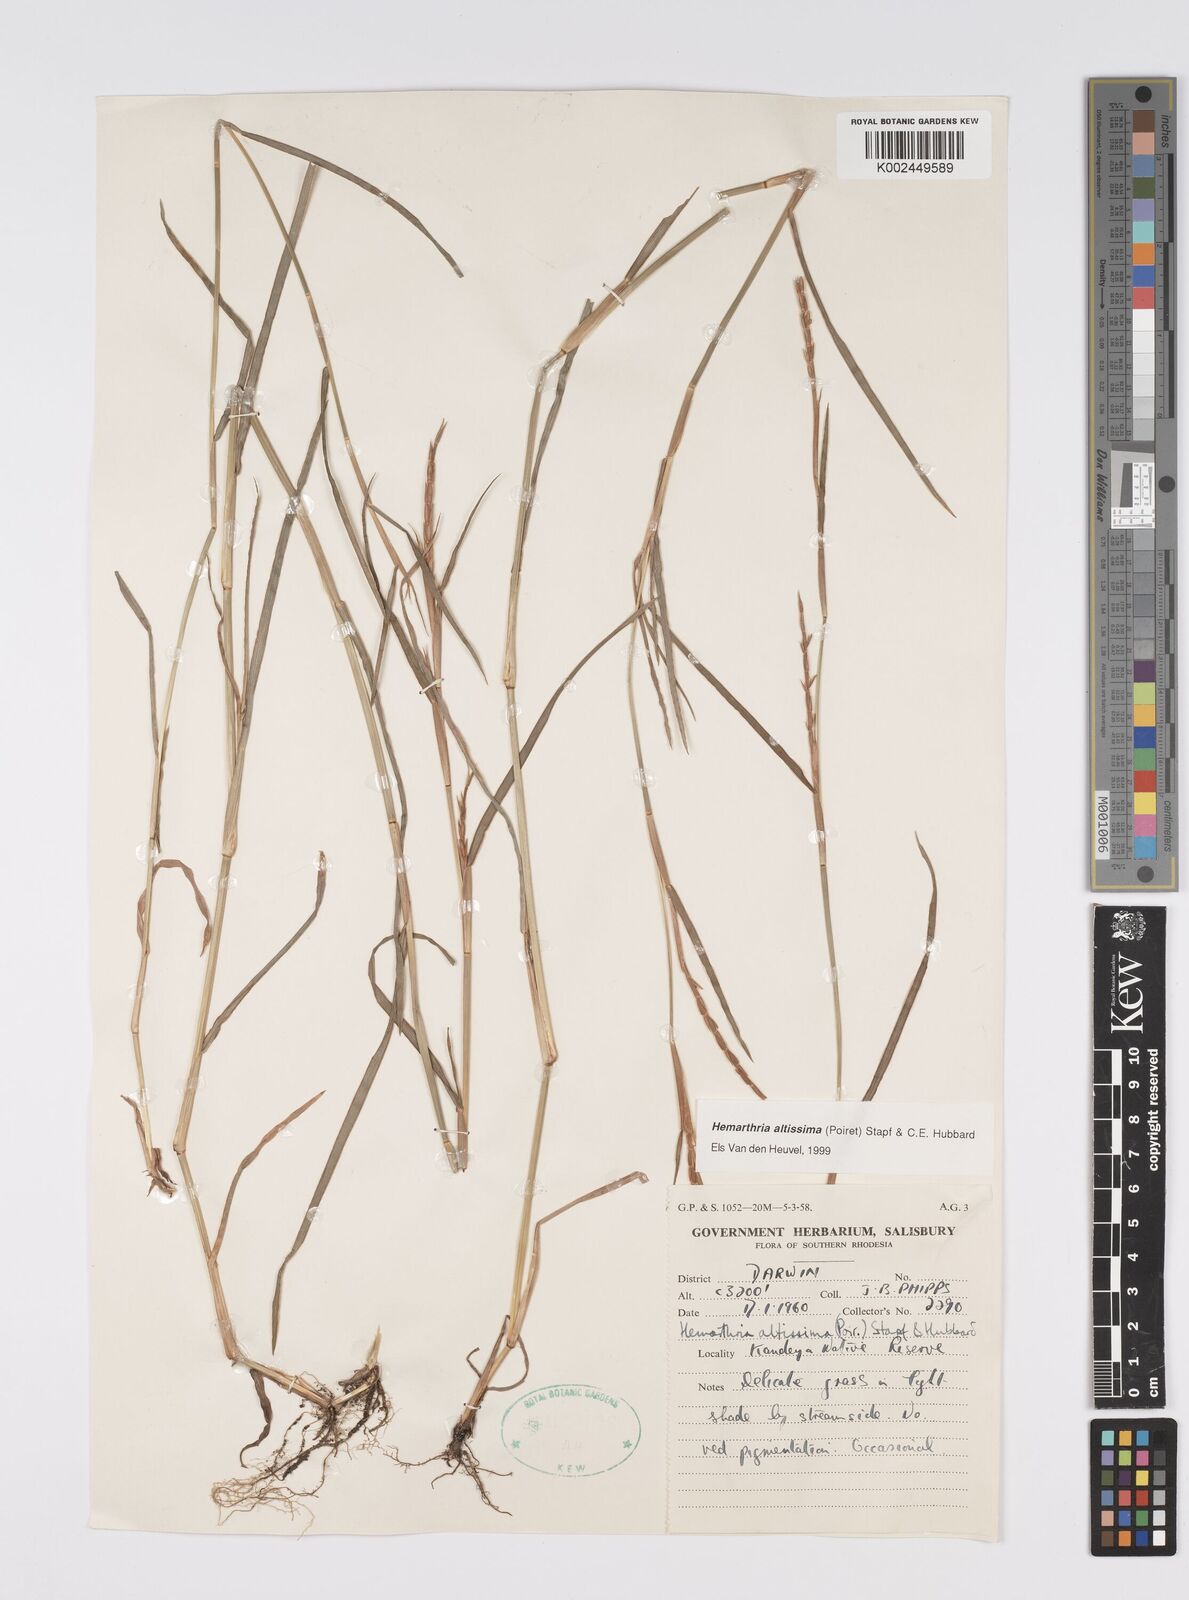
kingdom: Plantae
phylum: Tracheophyta
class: Liliopsida
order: Poales
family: Poaceae
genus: Hemarthria
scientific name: Hemarthria altissima
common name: African jointgrass
